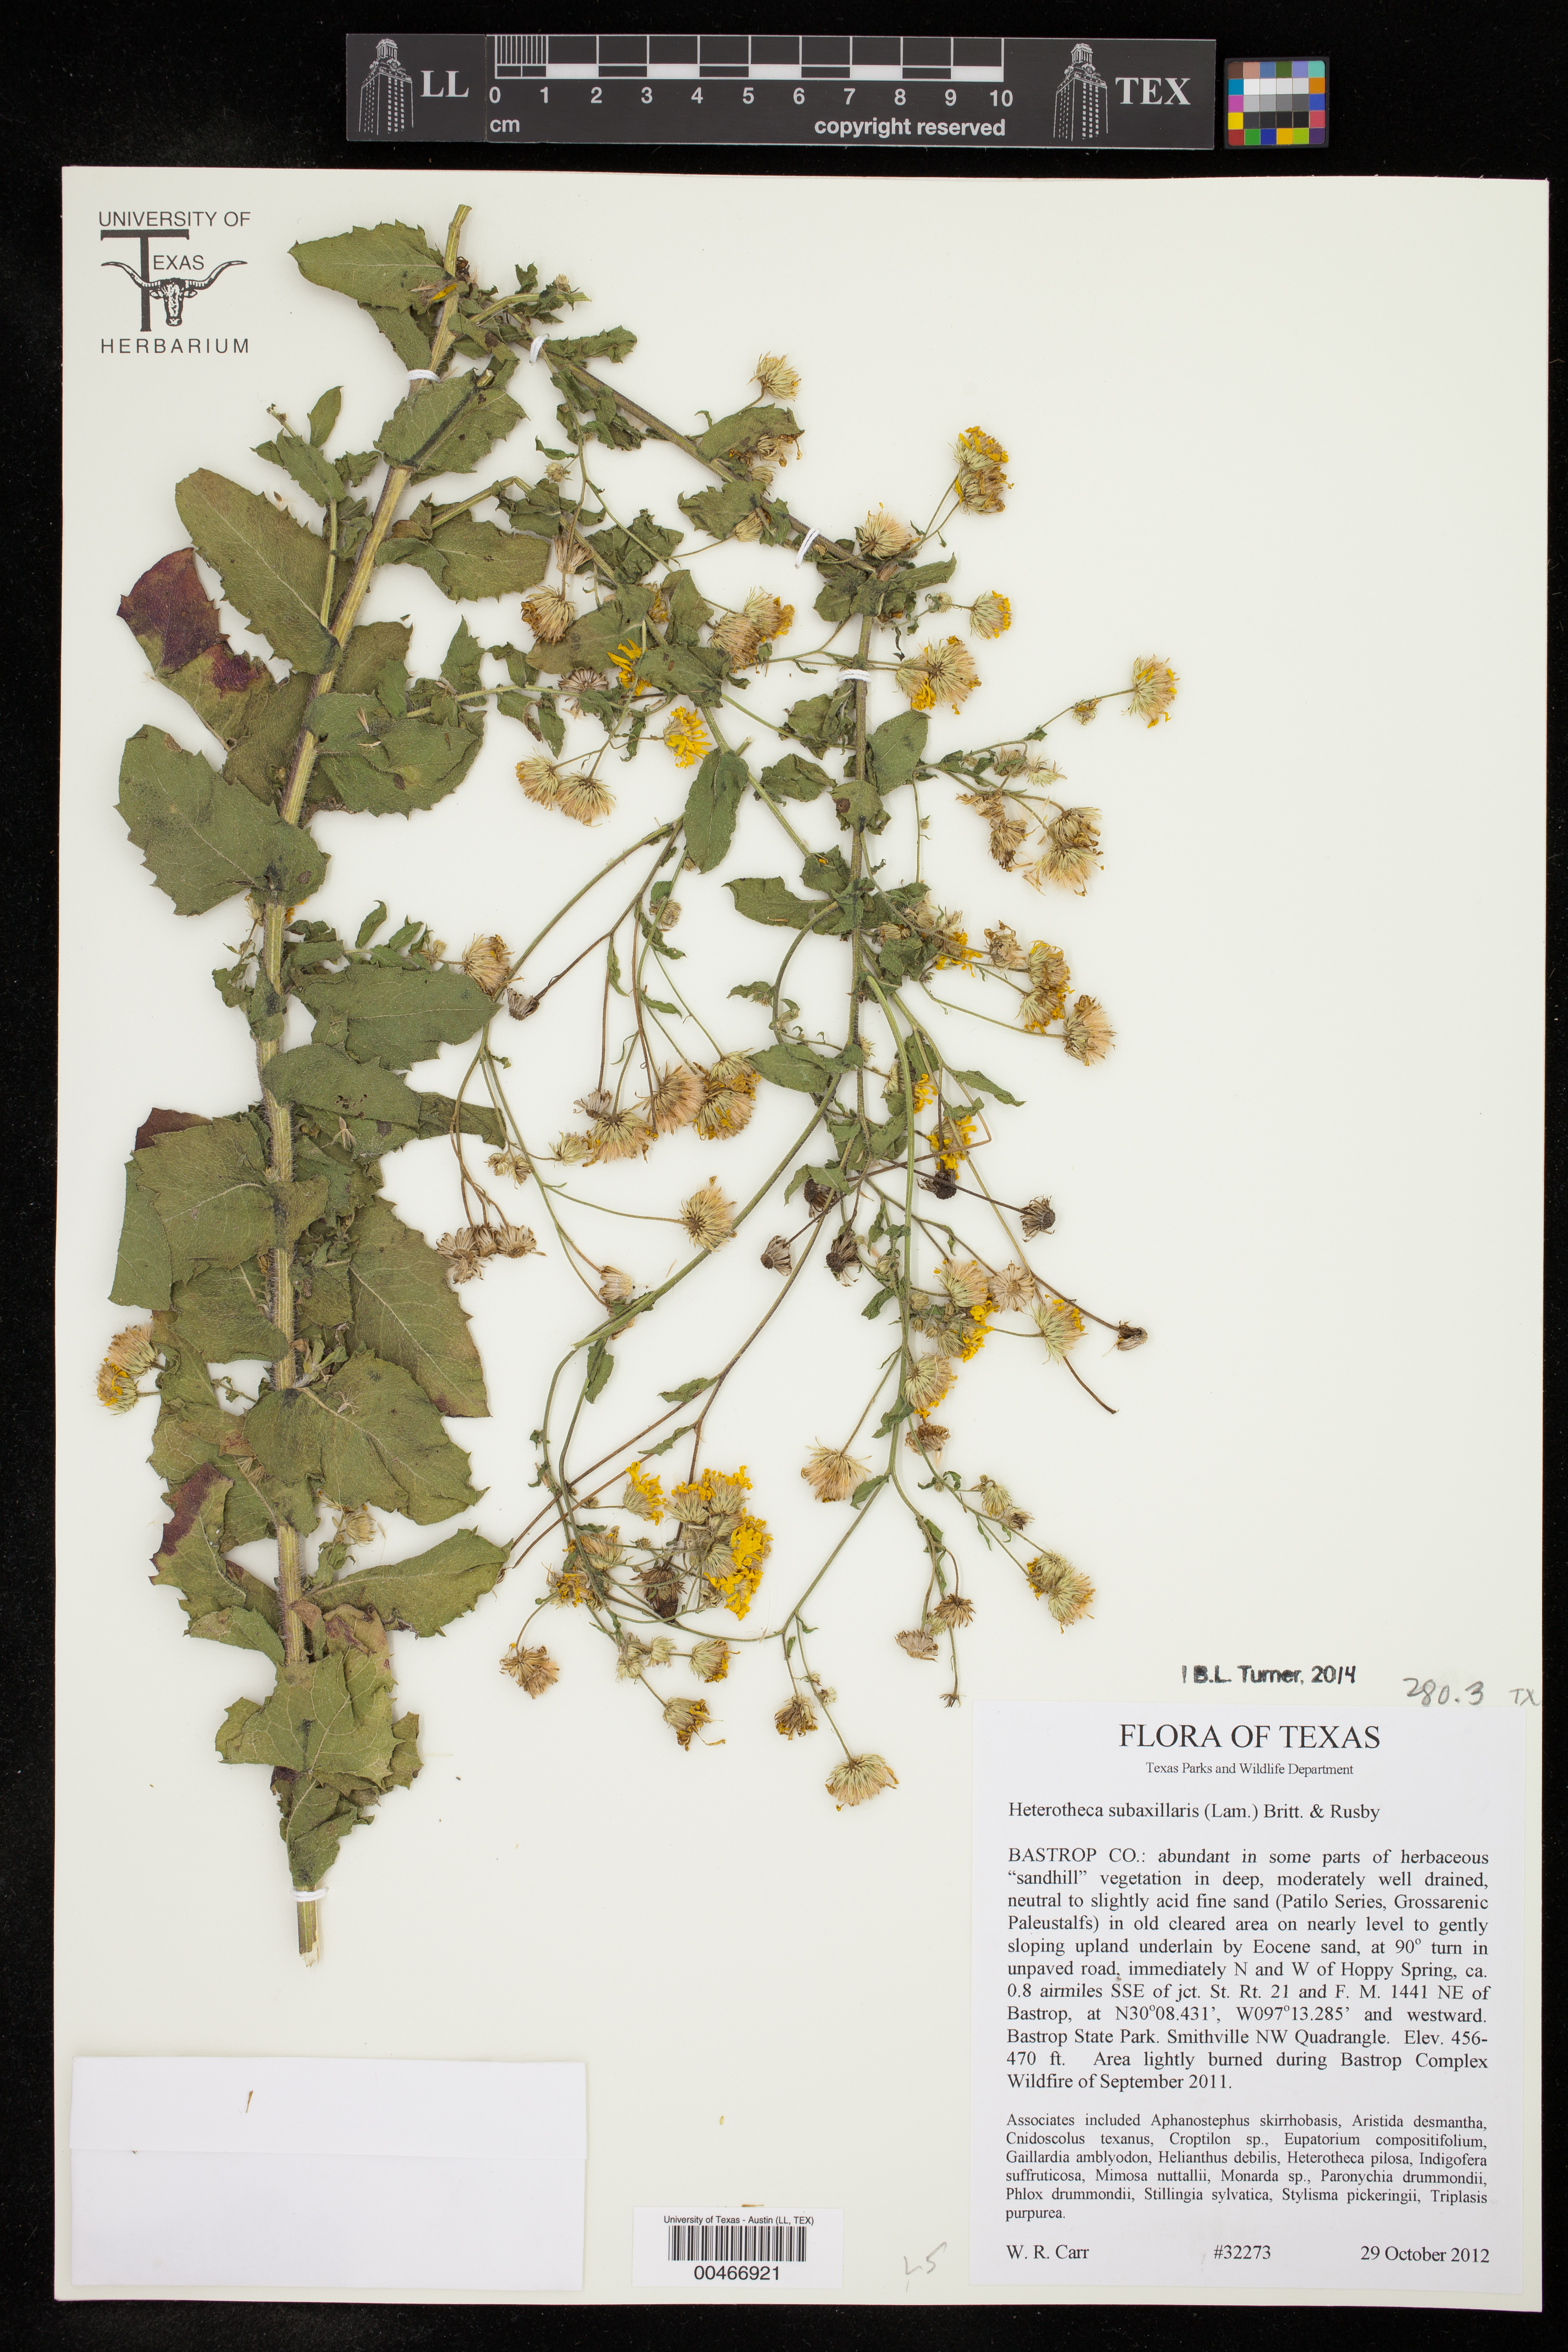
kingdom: Plantae
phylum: Tracheophyta
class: Magnoliopsida
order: Asterales
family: Asteraceae
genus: Heterotheca
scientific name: Heterotheca subaxillaris
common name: Camphorweed
